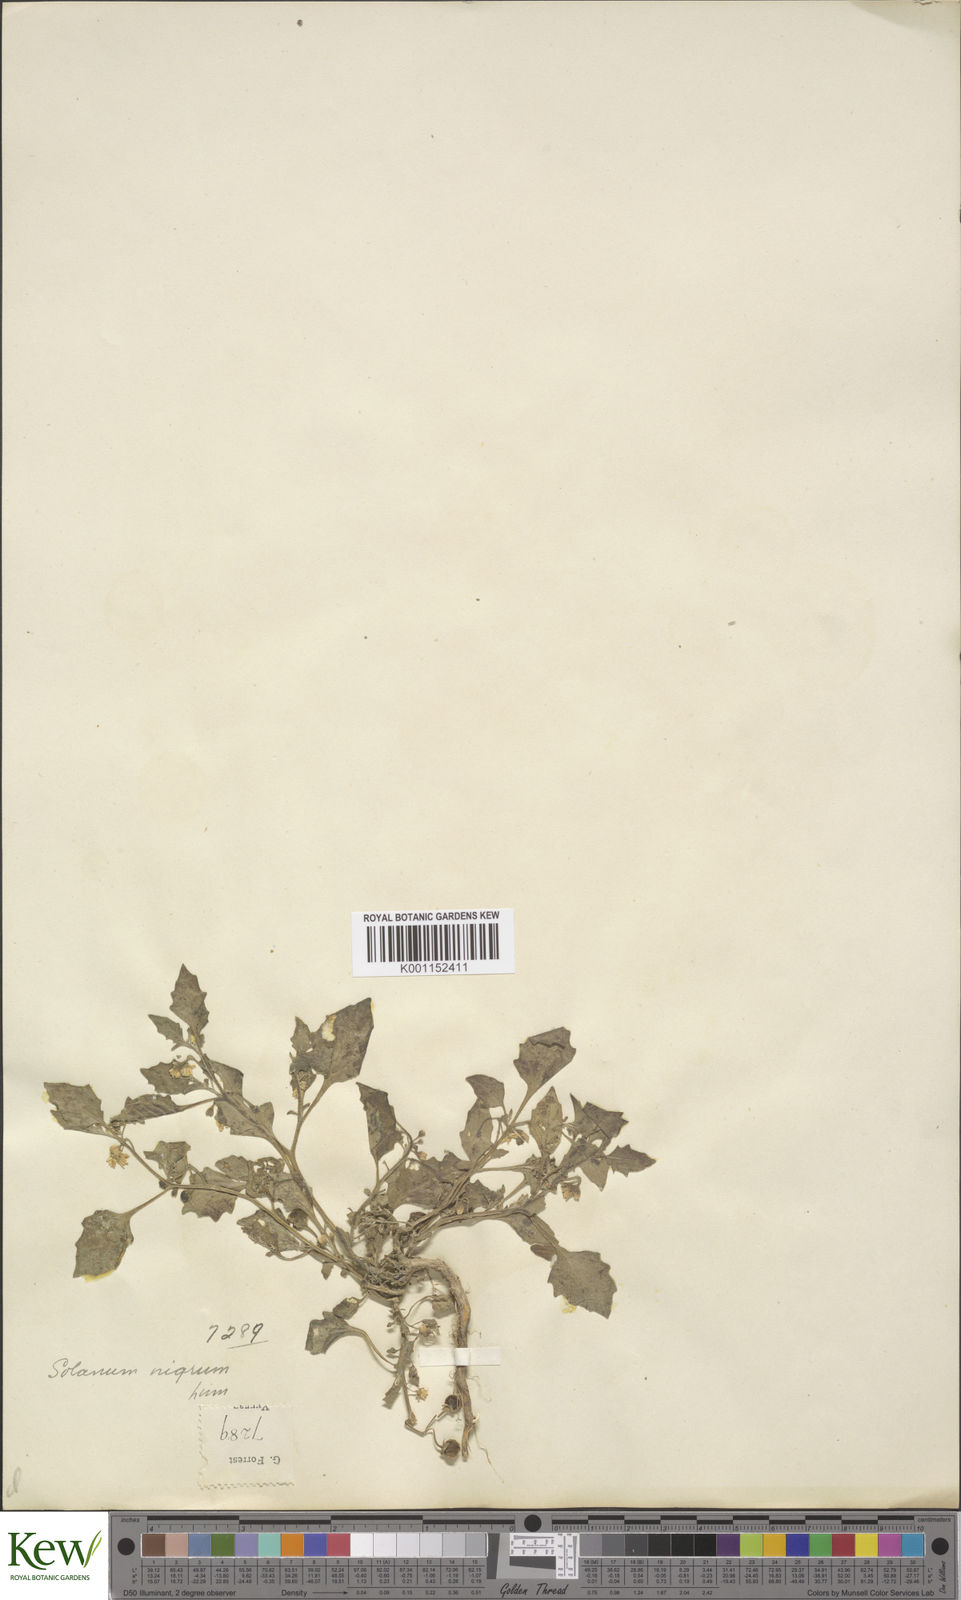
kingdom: Plantae
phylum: Tracheophyta
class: Magnoliopsida
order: Solanales
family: Solanaceae
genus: Solanum
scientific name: Solanum scabrum
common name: Garden-huckleberry
